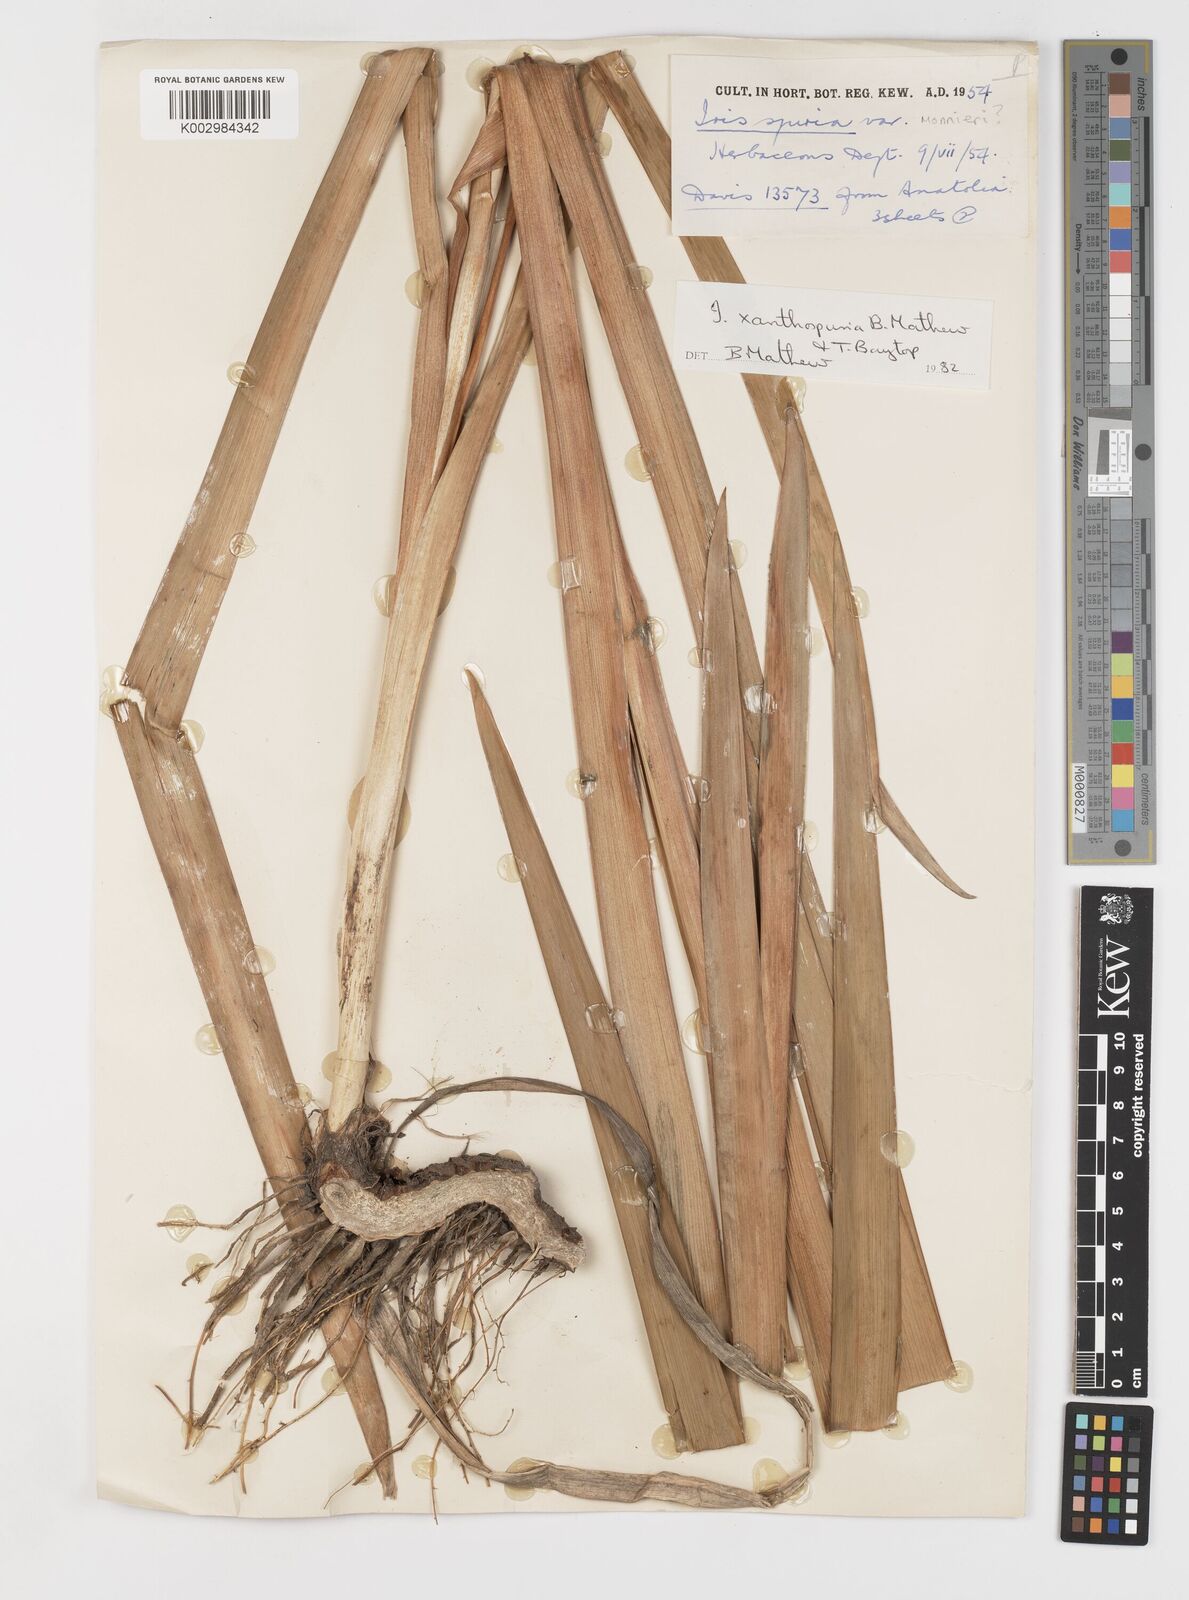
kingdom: Plantae
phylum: Tracheophyta
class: Liliopsida
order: Asparagales
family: Iridaceae
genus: Iris
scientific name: Iris spuria
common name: Blue iris
